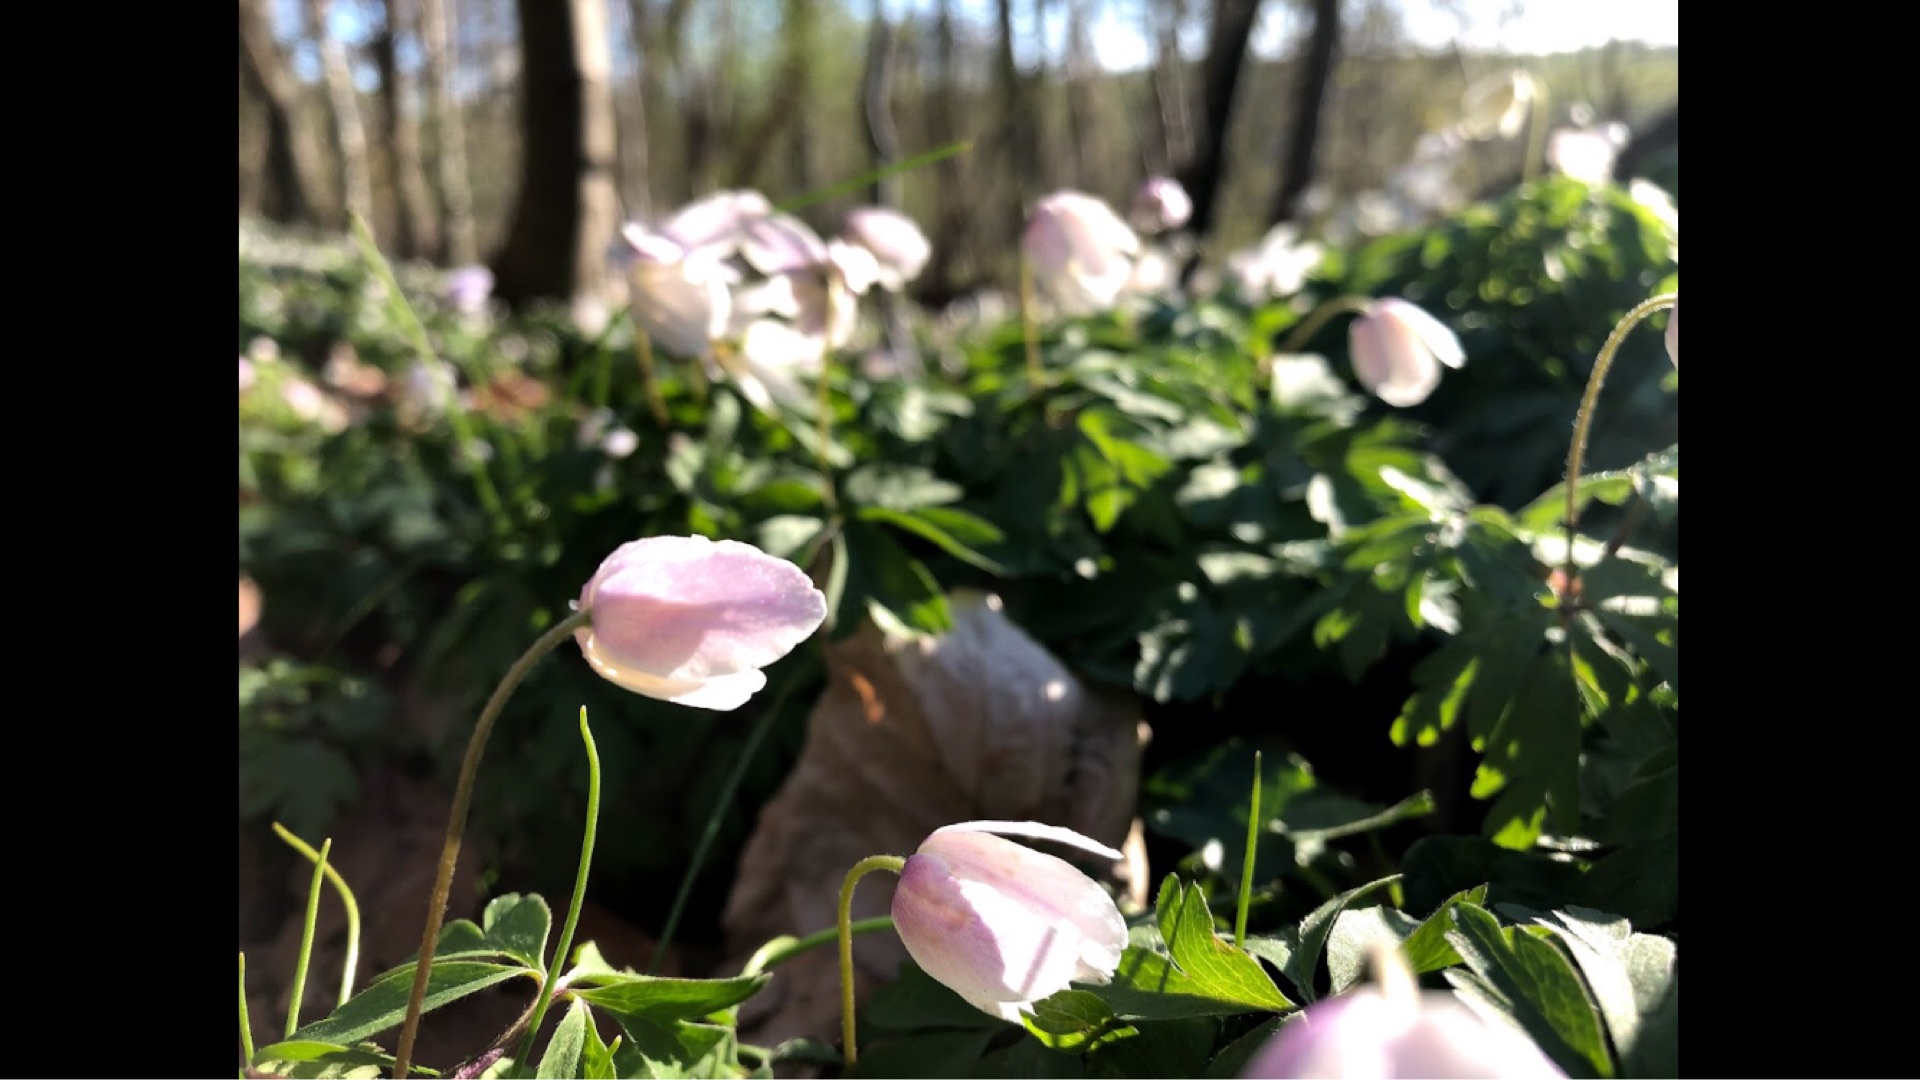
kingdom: Plantae
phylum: Tracheophyta
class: Magnoliopsida
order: Ranunculales
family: Ranunculaceae
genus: Anemone
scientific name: Anemone nemorosa
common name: Hvid anemone
